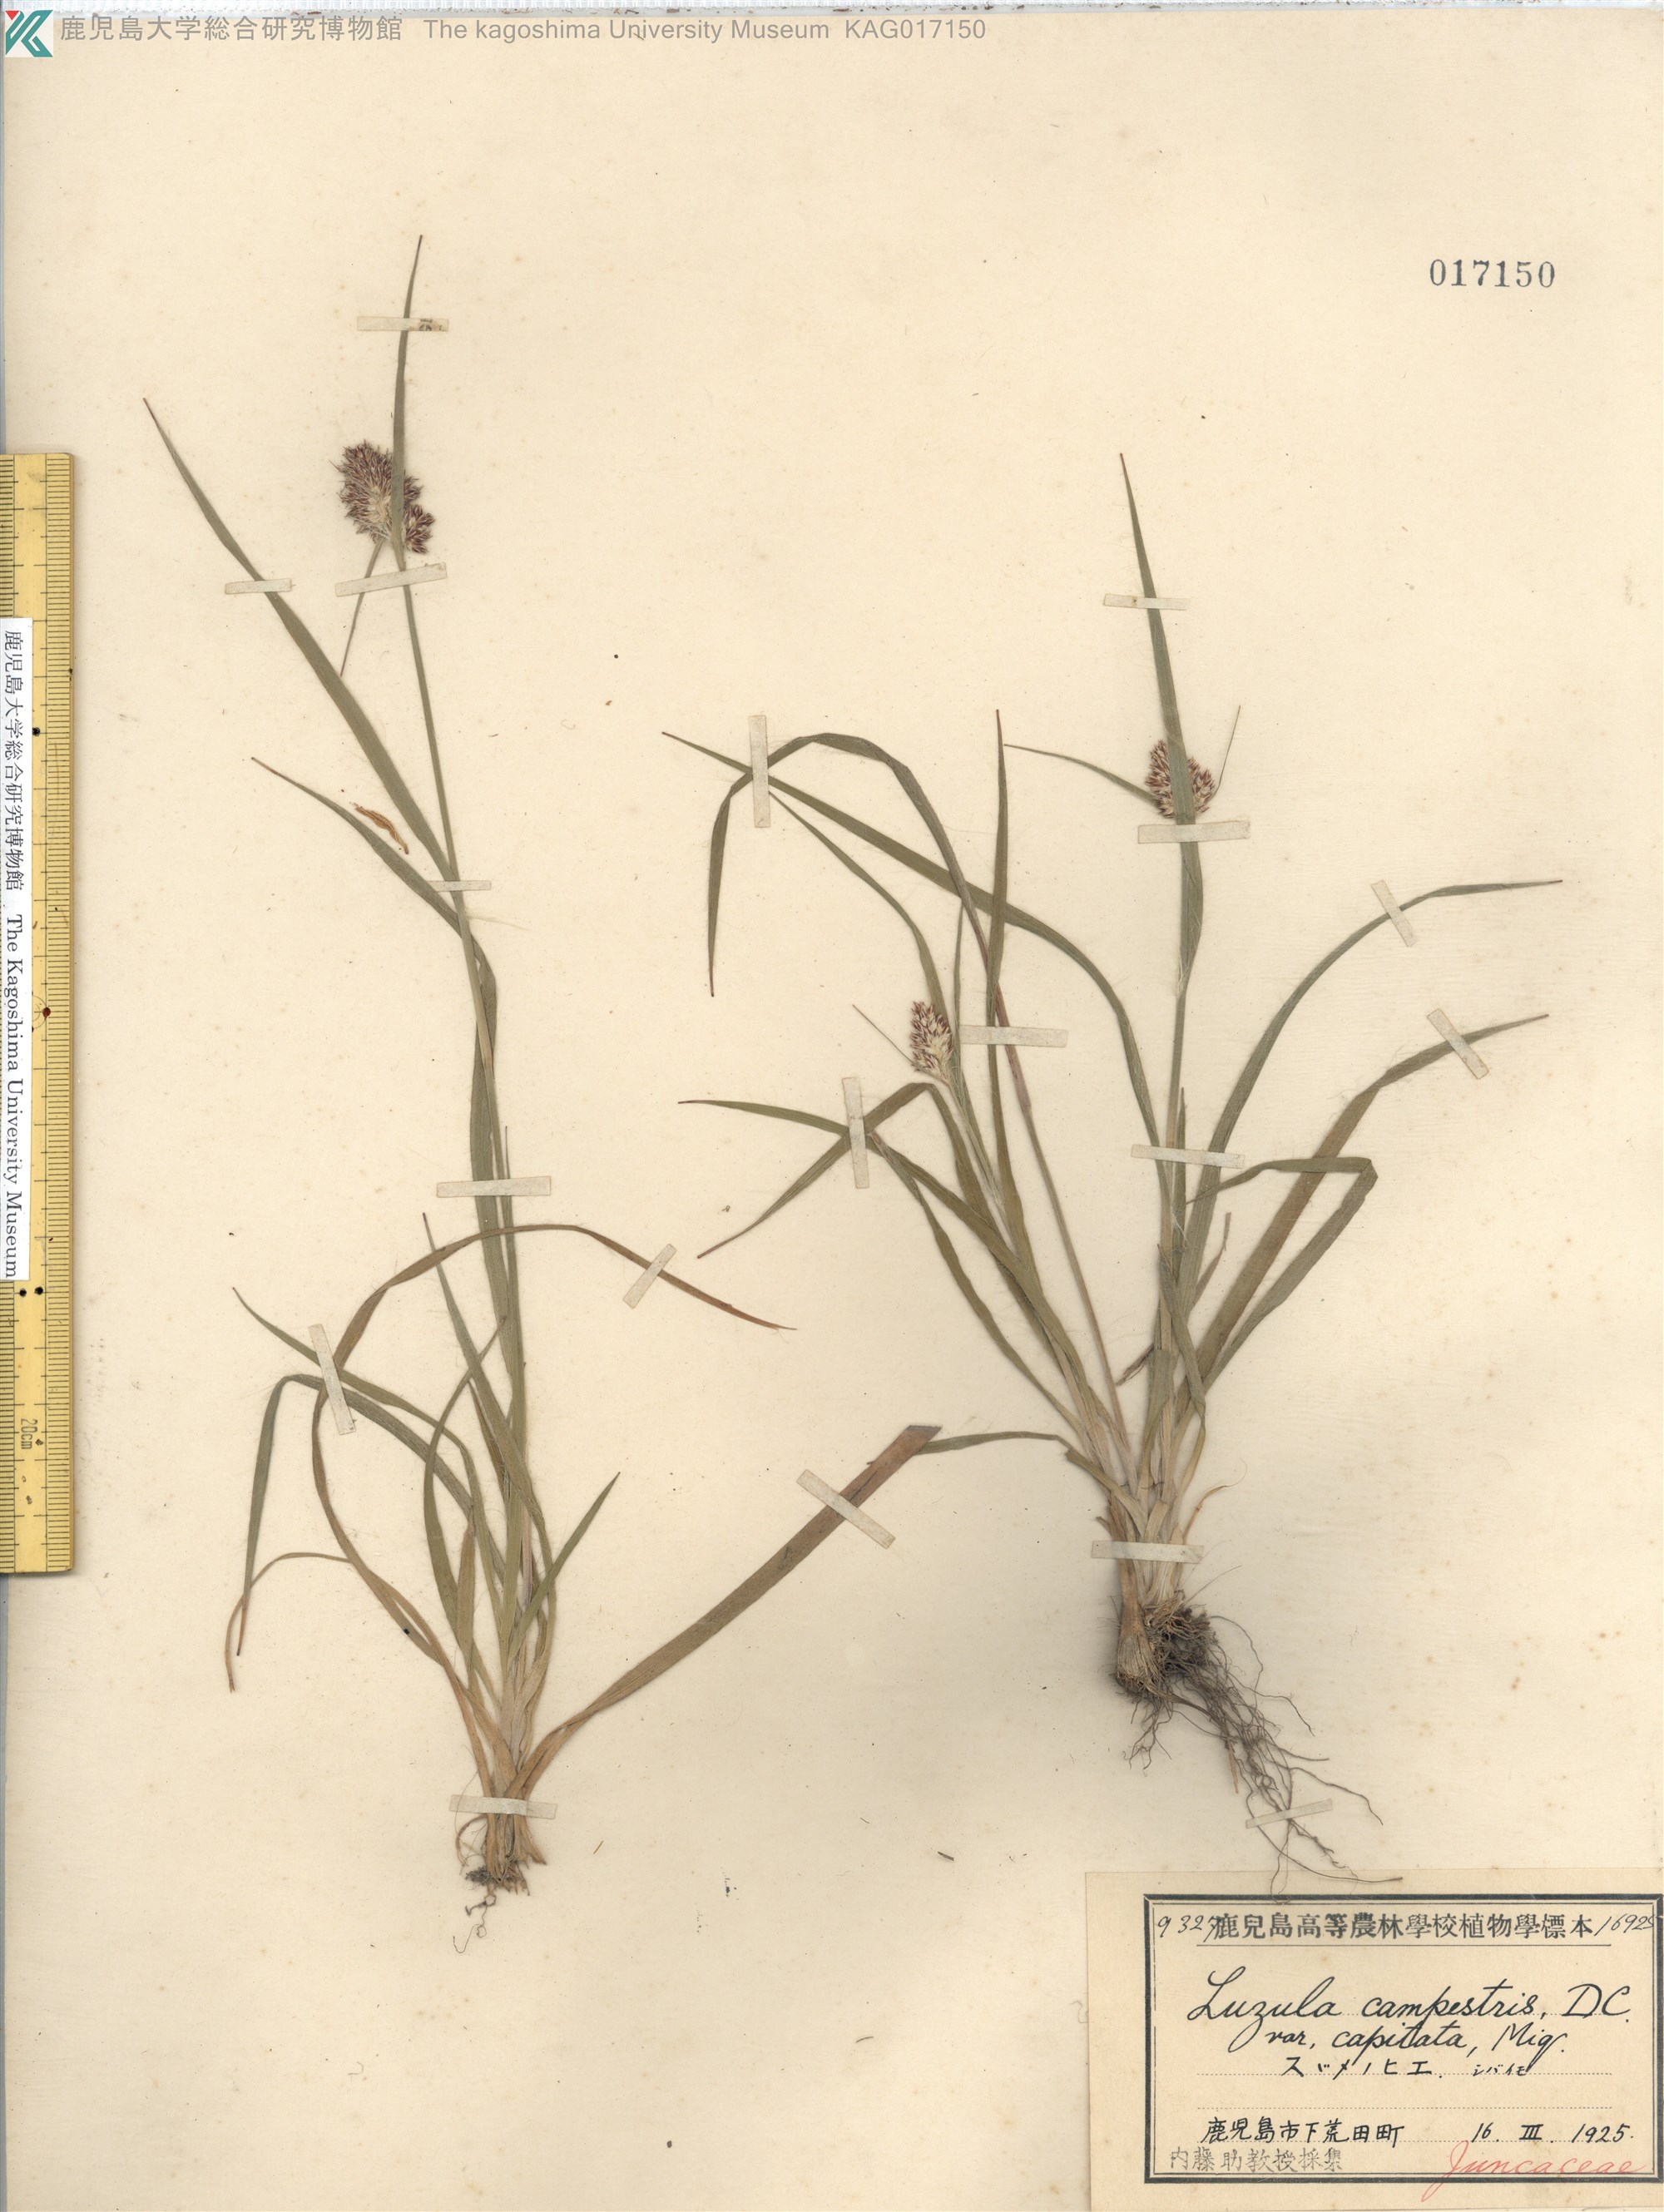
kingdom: Plantae
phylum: Tracheophyta
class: Liliopsida
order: Poales
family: Juncaceae
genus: Luzula
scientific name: Luzula capitata
